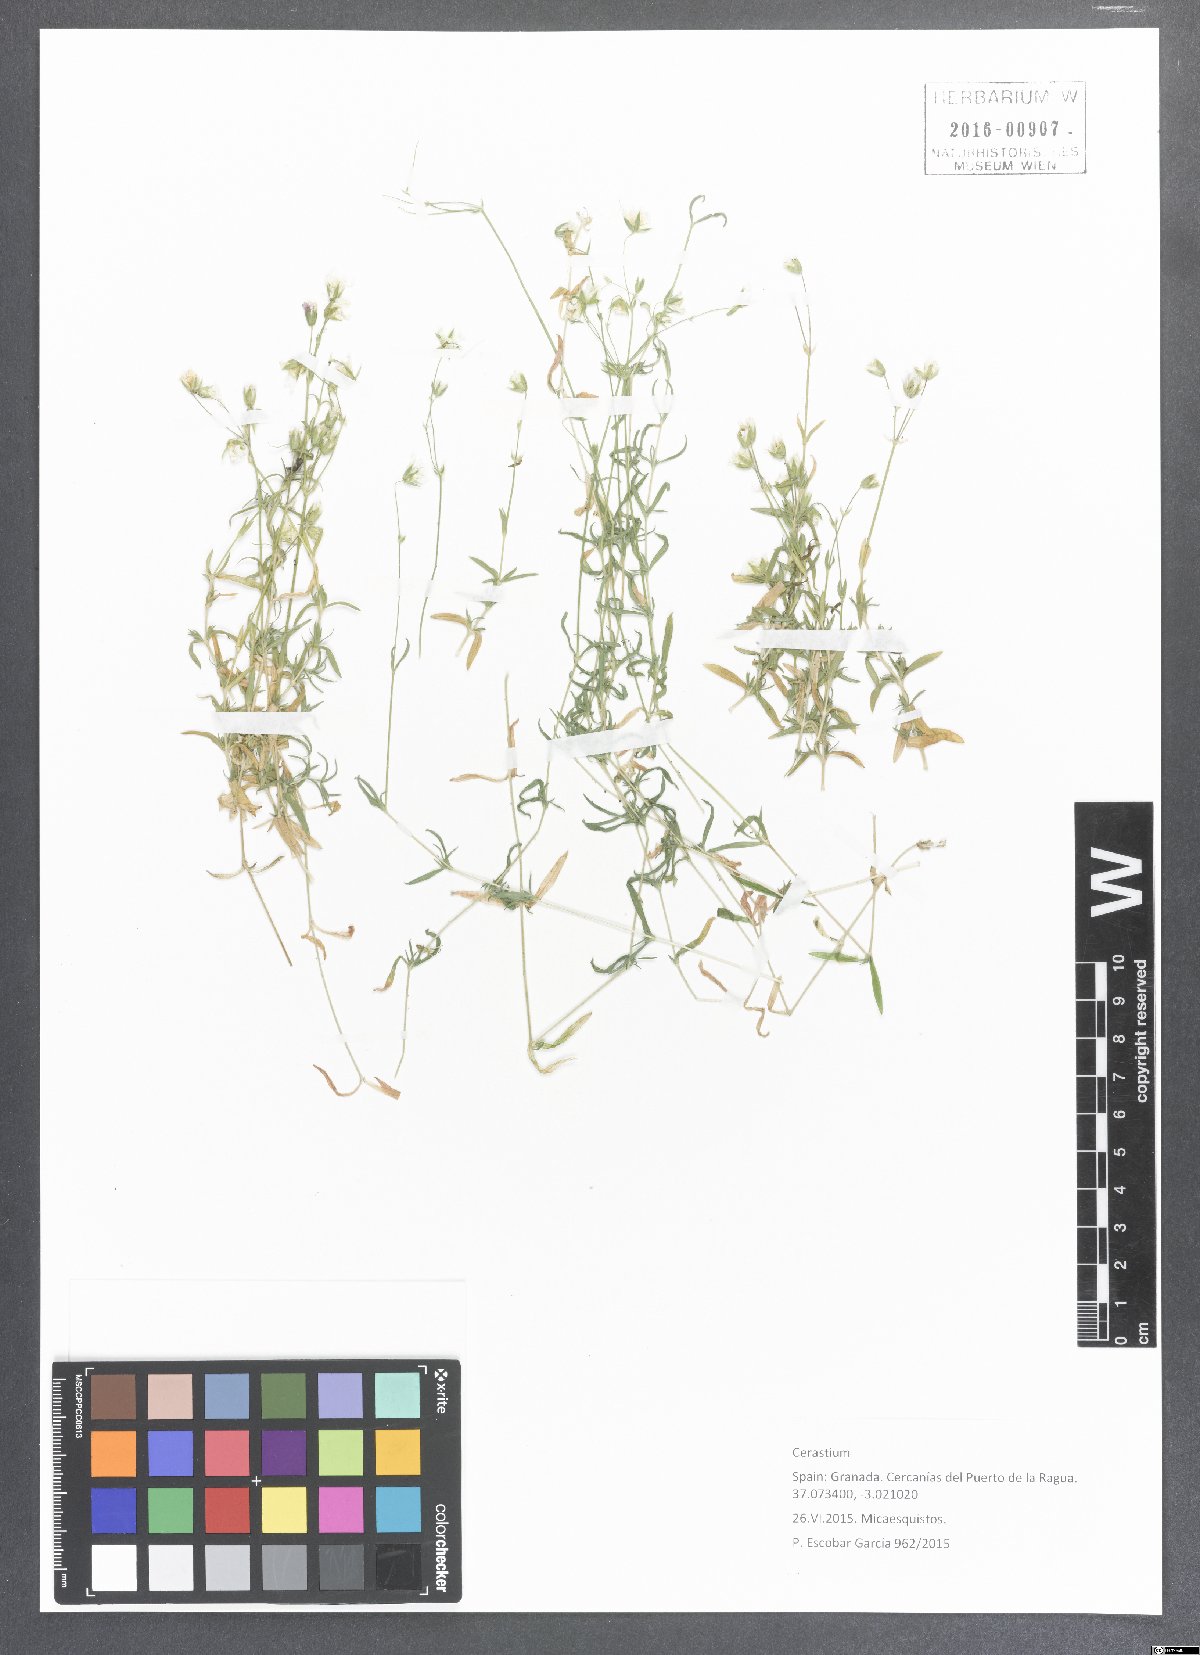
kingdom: Plantae
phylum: Tracheophyta
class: Magnoliopsida
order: Caryophyllales
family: Caryophyllaceae
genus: Cerastium
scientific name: Cerastium
